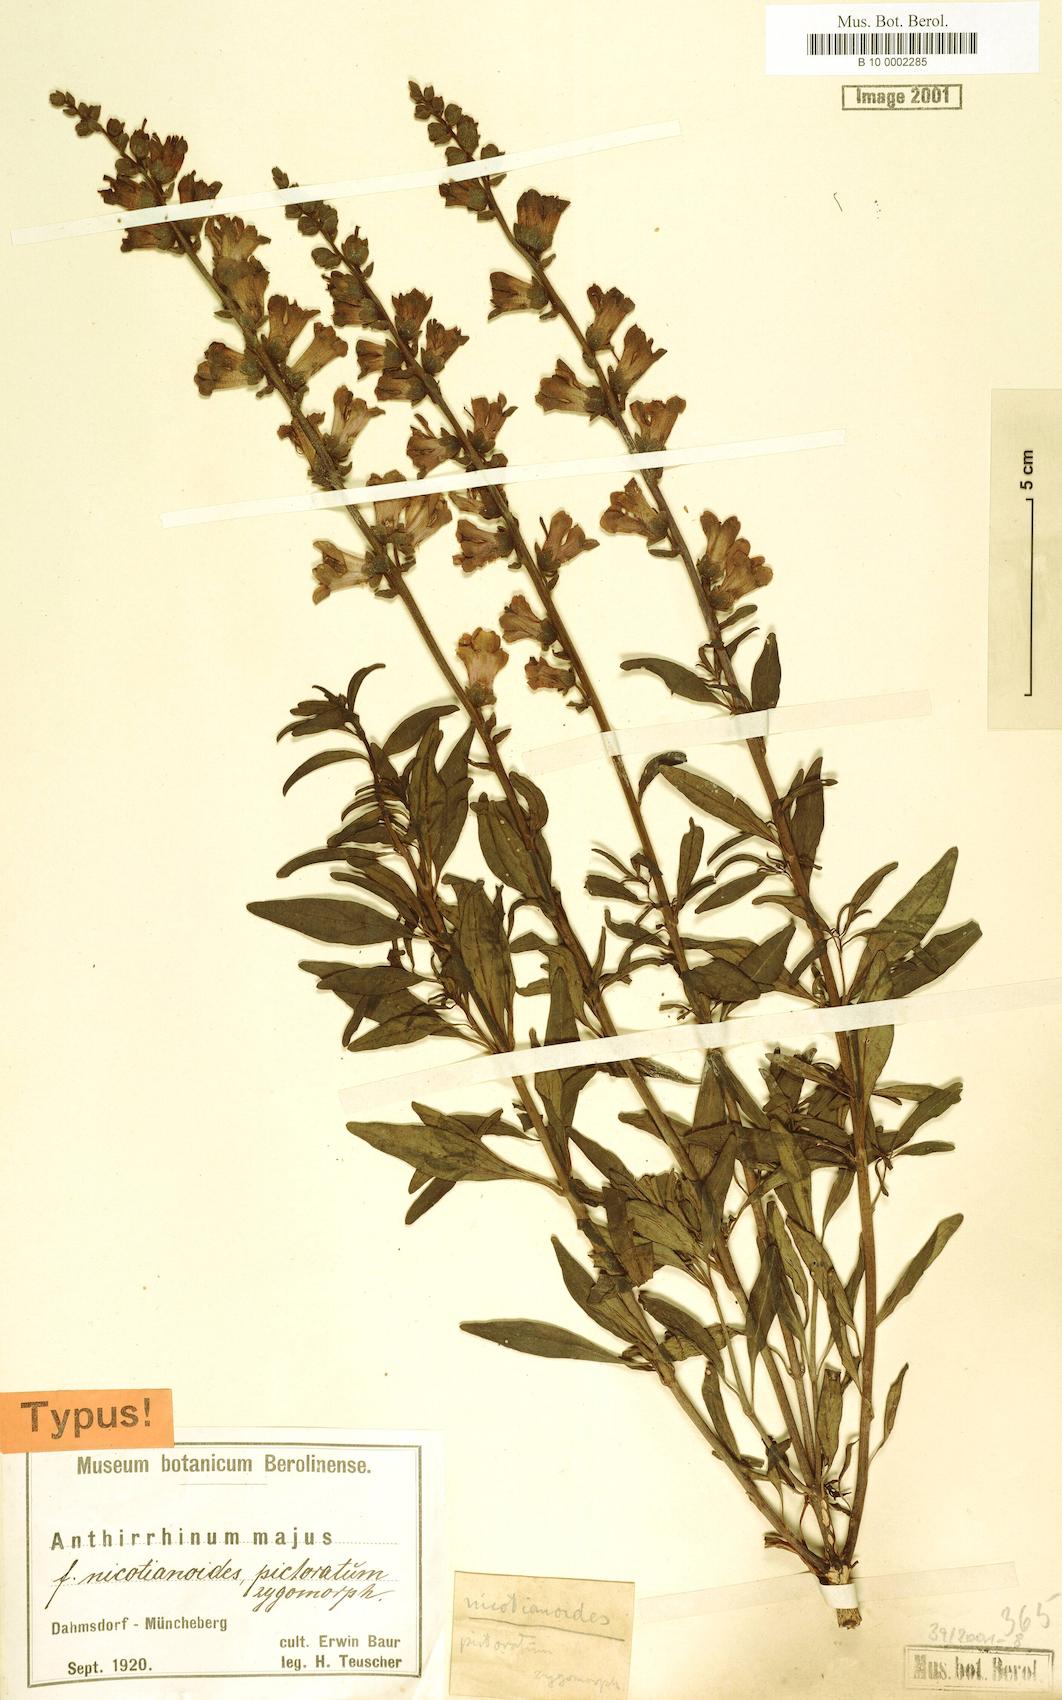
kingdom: Plantae
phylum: Tracheophyta
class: Magnoliopsida
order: Lamiales
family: Plantaginaceae
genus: Antirrhinum
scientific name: Antirrhinum majus
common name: Snapdragon
